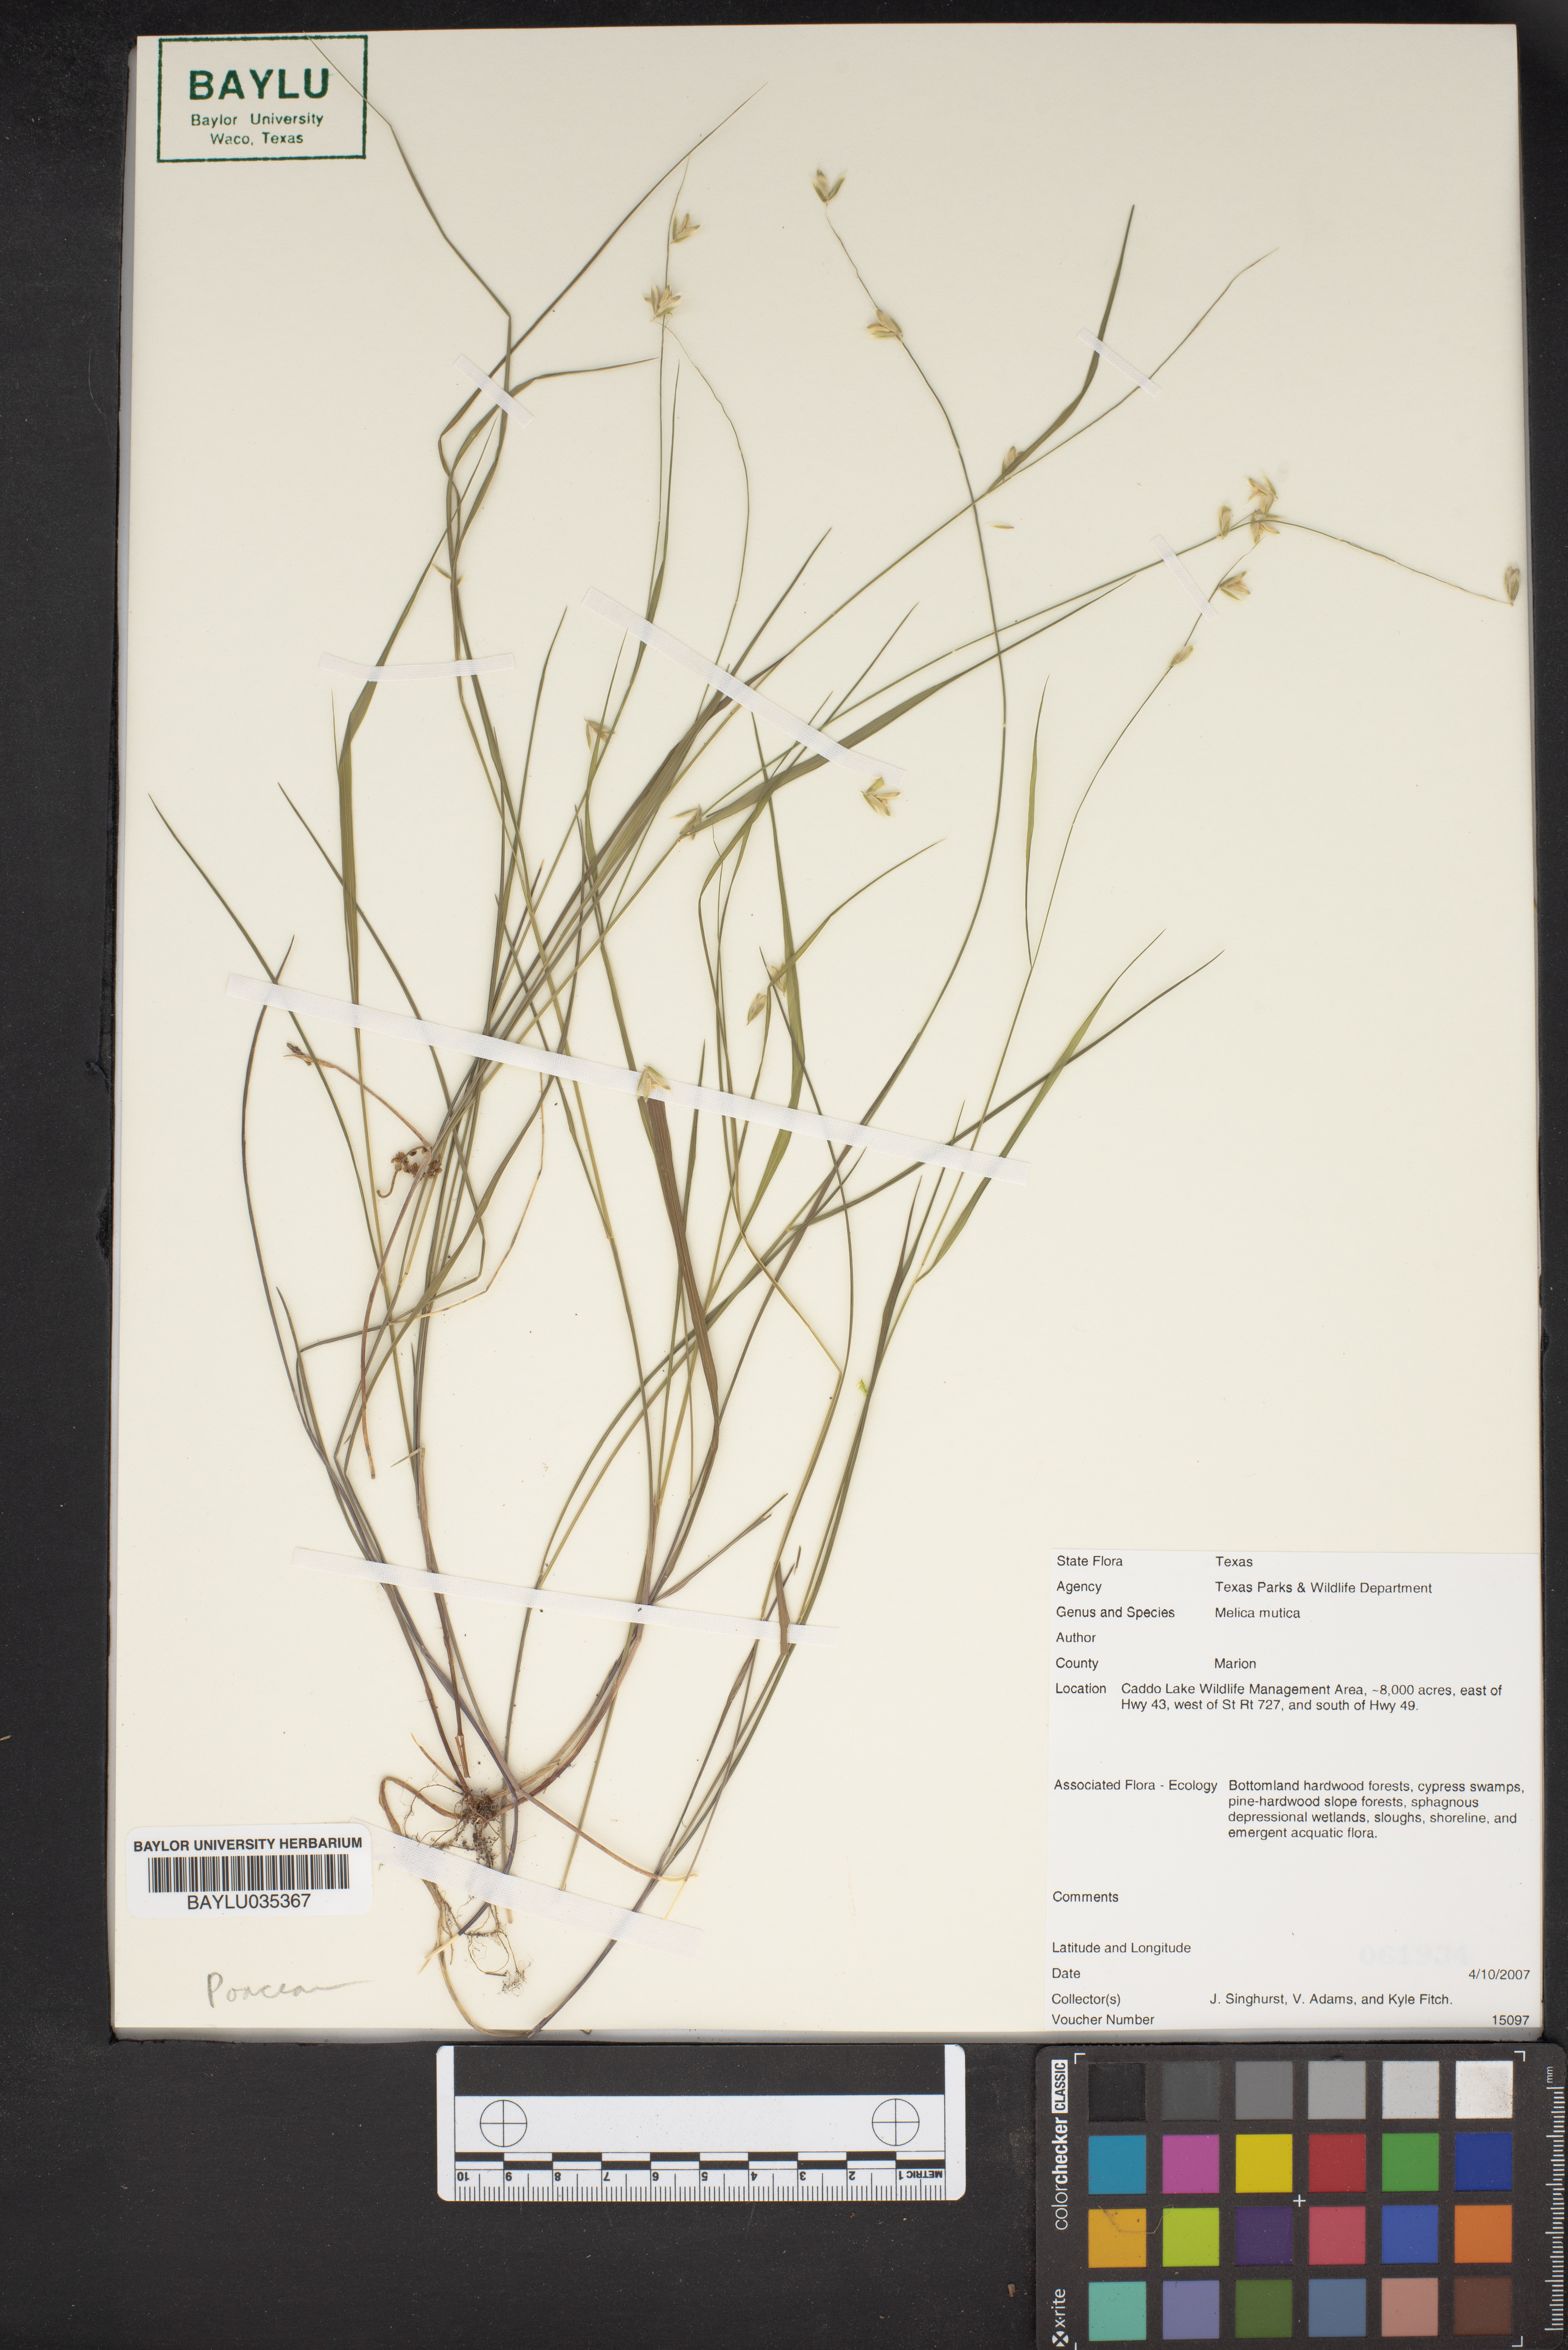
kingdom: Plantae
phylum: Tracheophyta
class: Liliopsida
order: Poales
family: Poaceae
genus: Melica
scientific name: Melica mutica
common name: Two-flower melic
